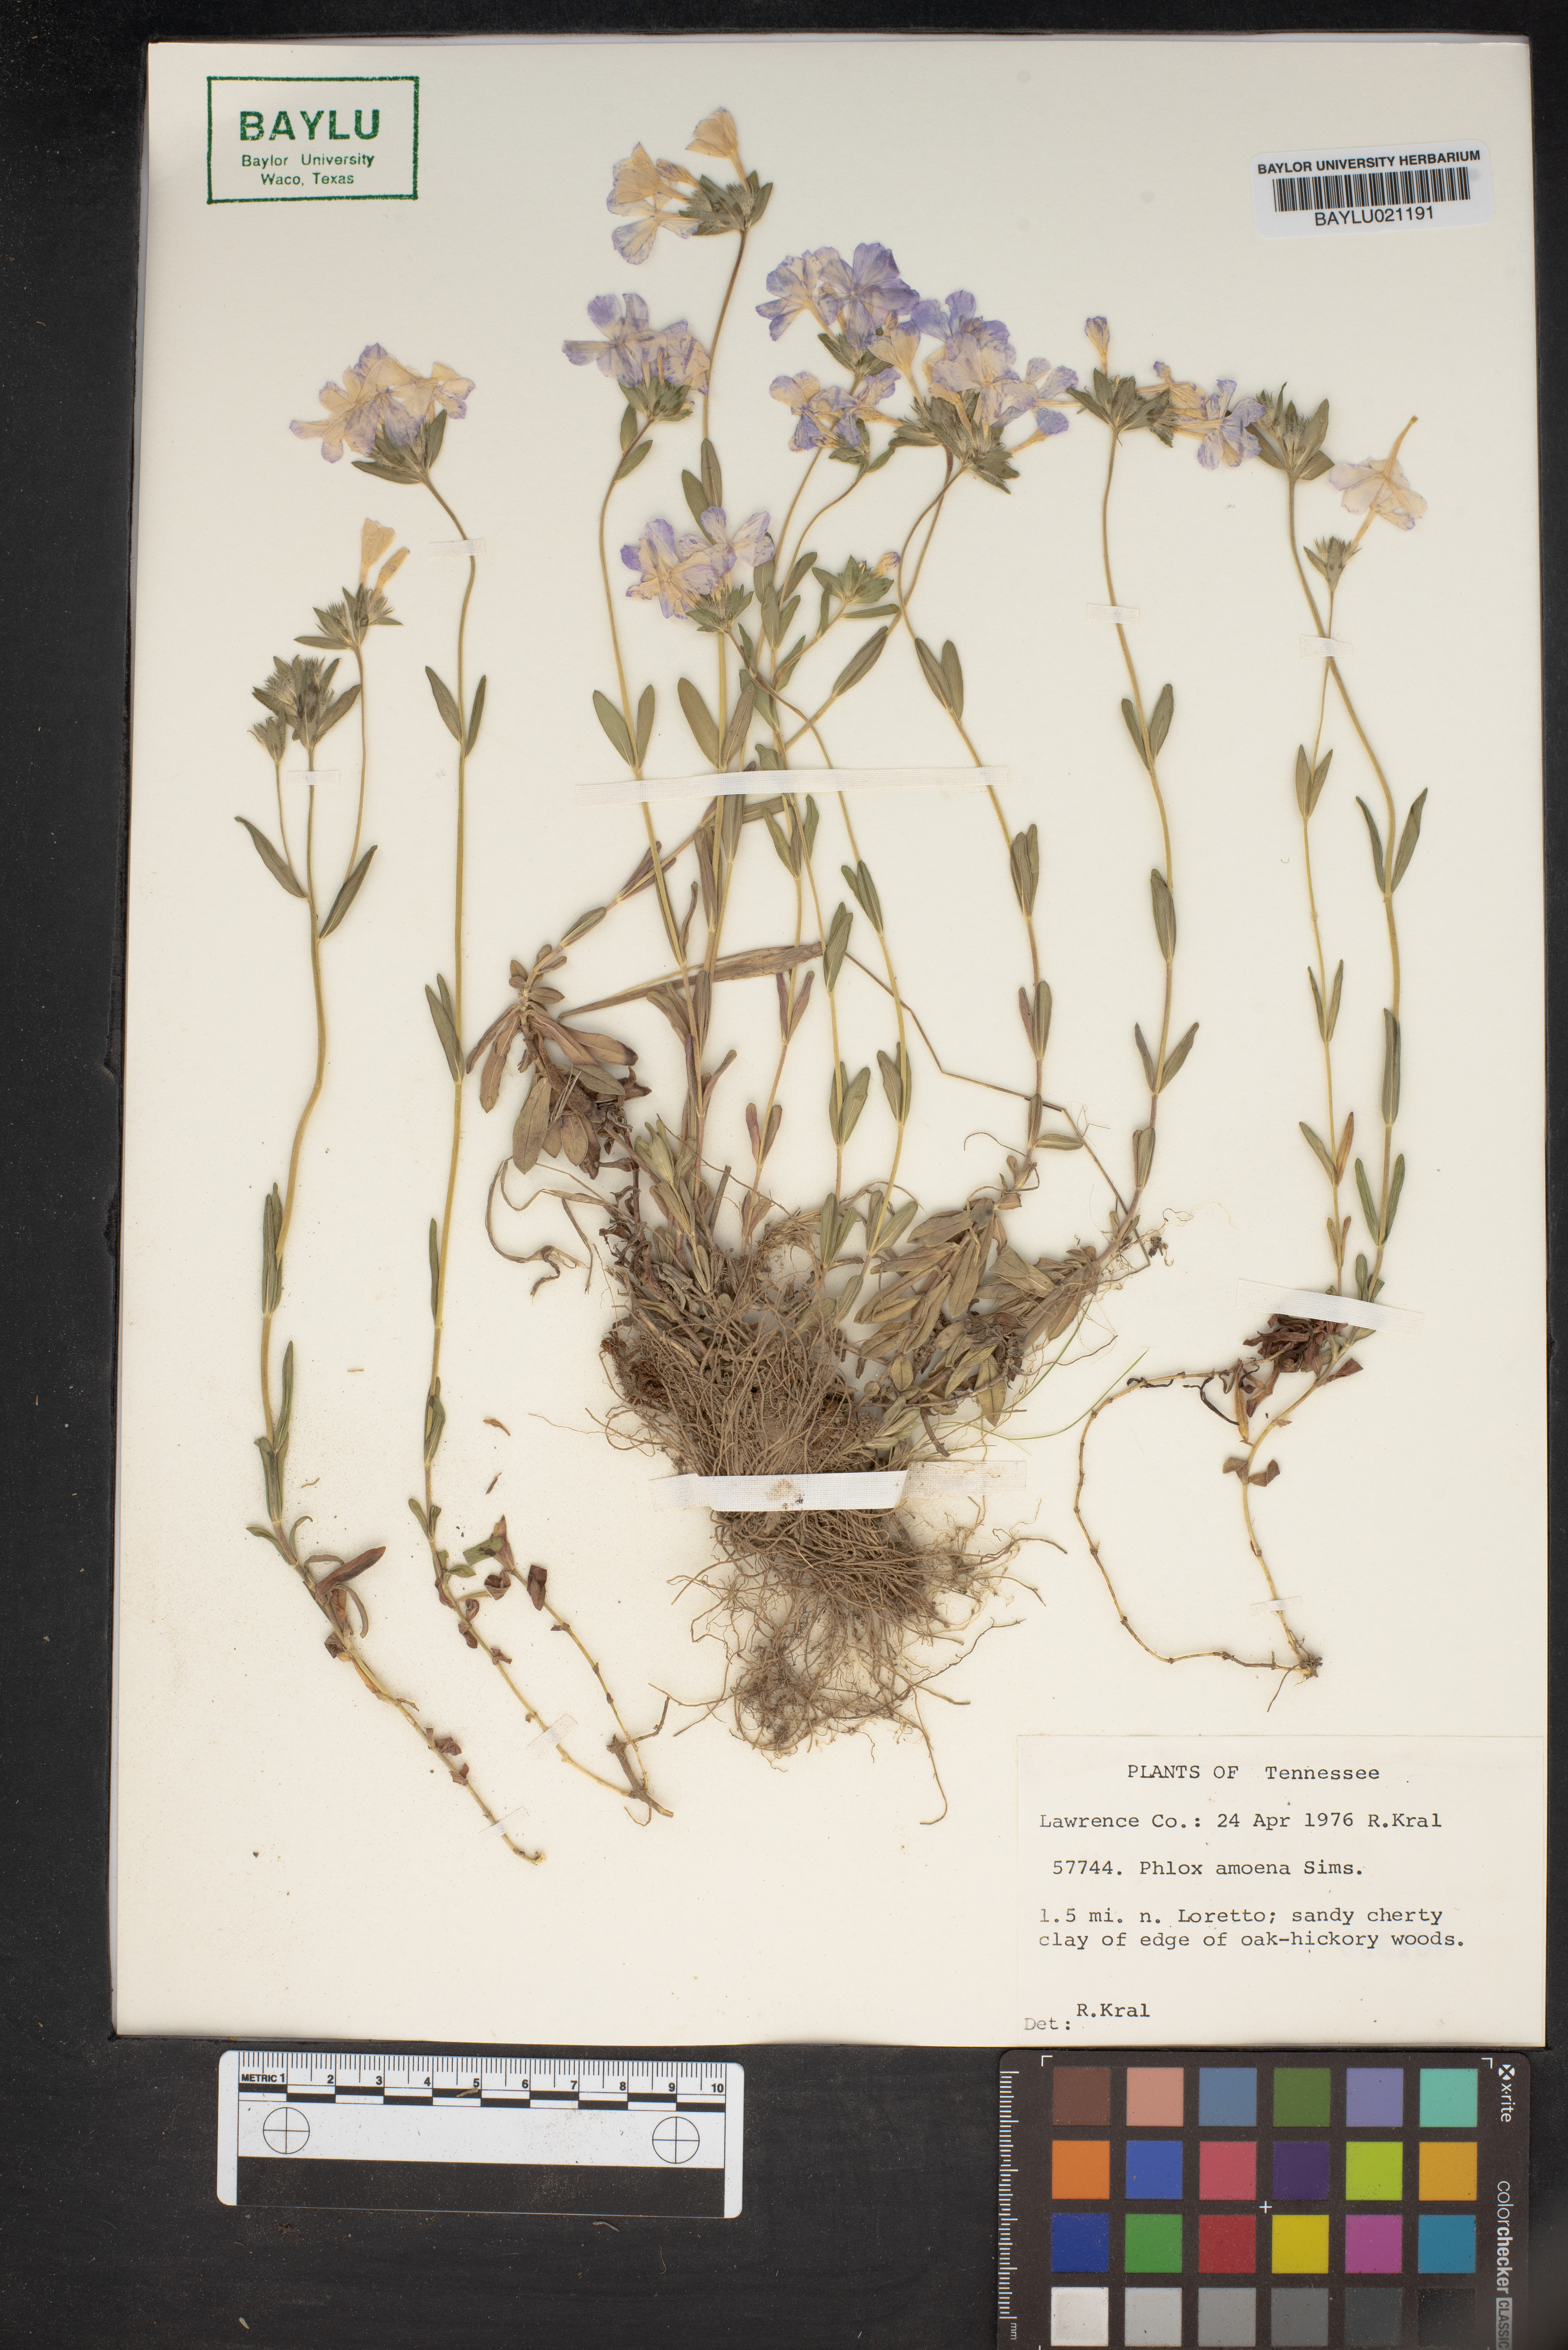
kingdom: Plantae
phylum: Tracheophyta
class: Magnoliopsida
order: Ericales
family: Polemoniaceae
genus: Phlox
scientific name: Phlox amoena
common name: Hairy phlox
